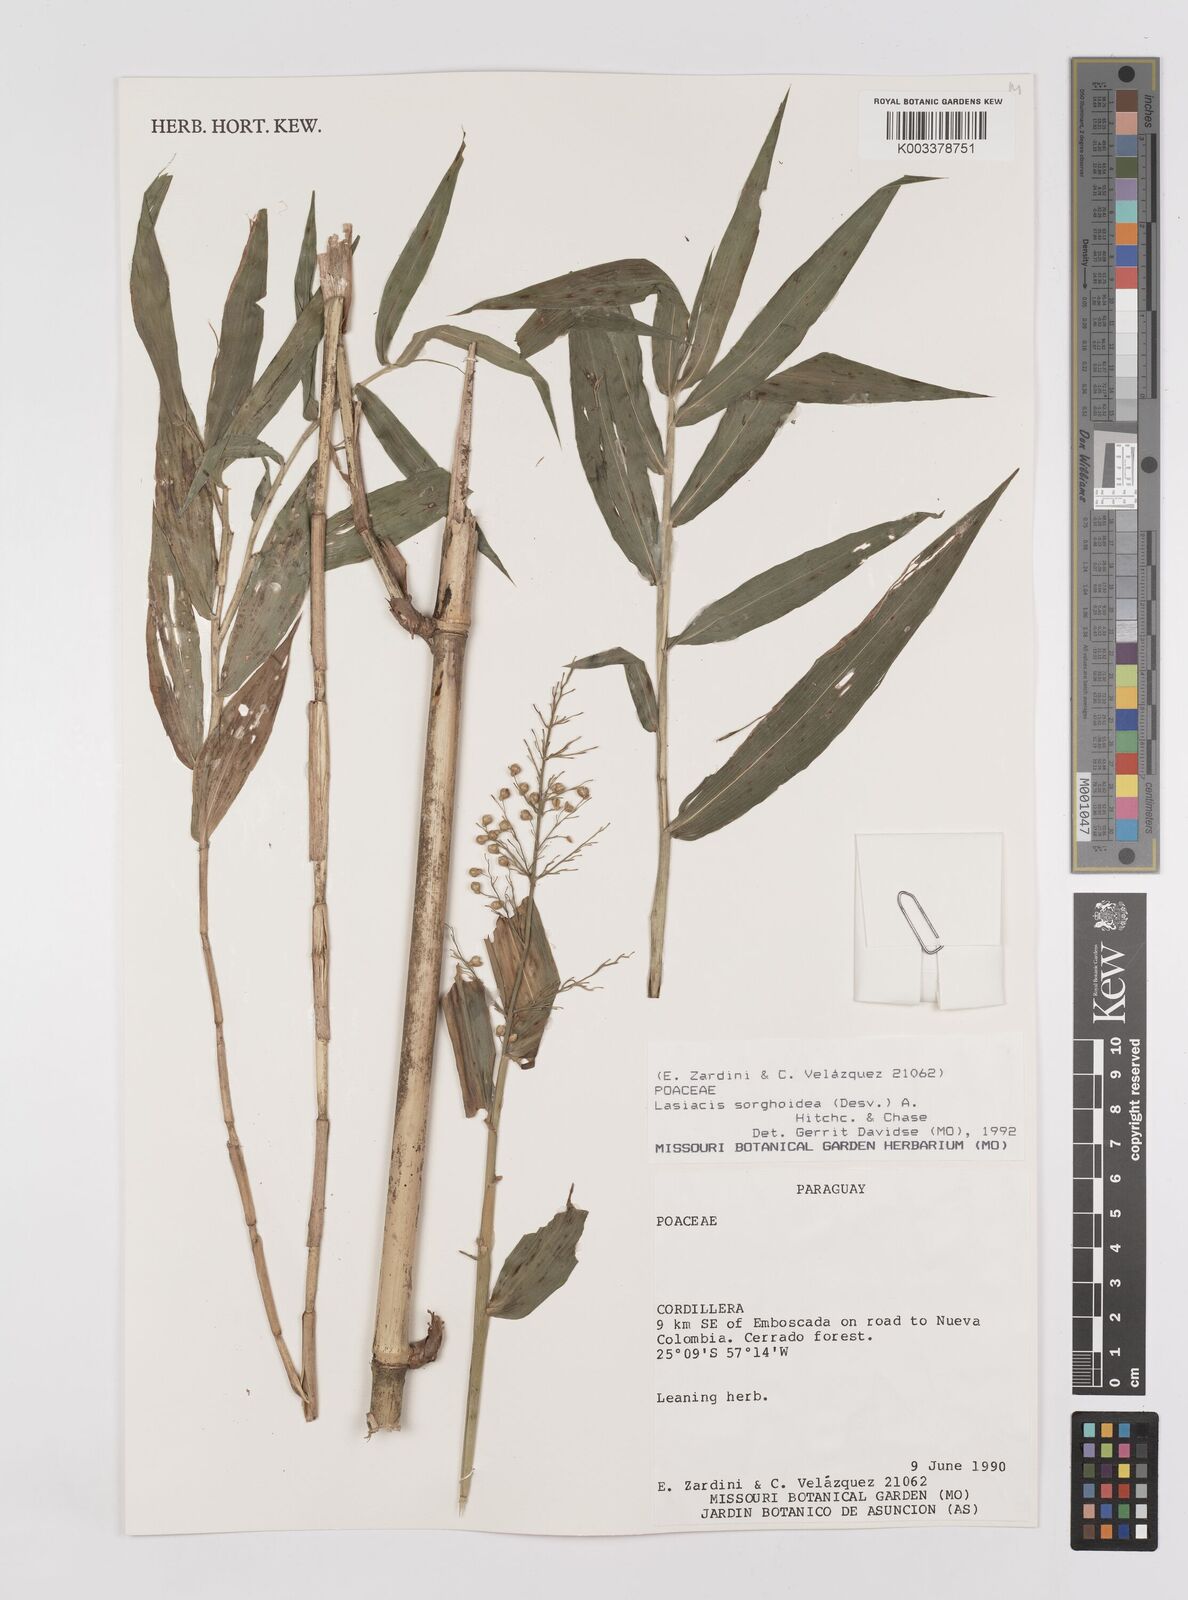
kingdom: Plantae
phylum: Tracheophyta
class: Liliopsida
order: Poales
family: Poaceae
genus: Lasiacis
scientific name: Lasiacis maculata
